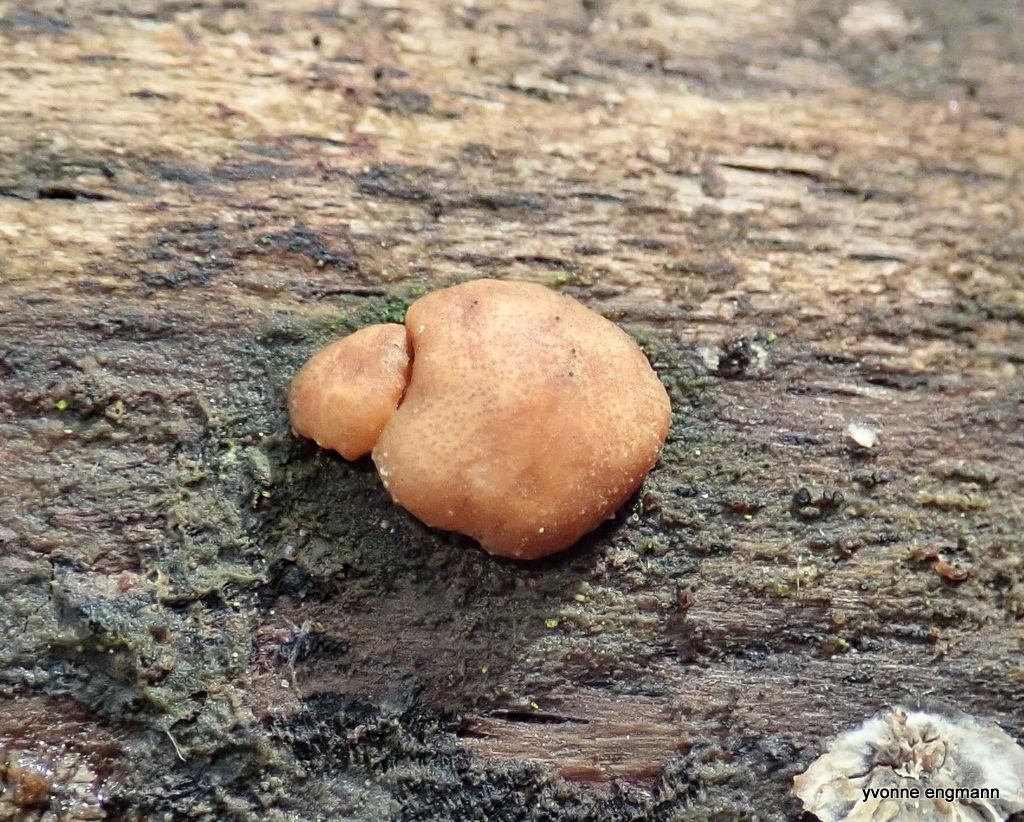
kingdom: Fungi
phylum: Ascomycota
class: Sordariomycetes
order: Hypocreales
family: Hypocreaceae
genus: Trichoderma
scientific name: Trichoderma europaeum
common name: rosabrun kødkerne
